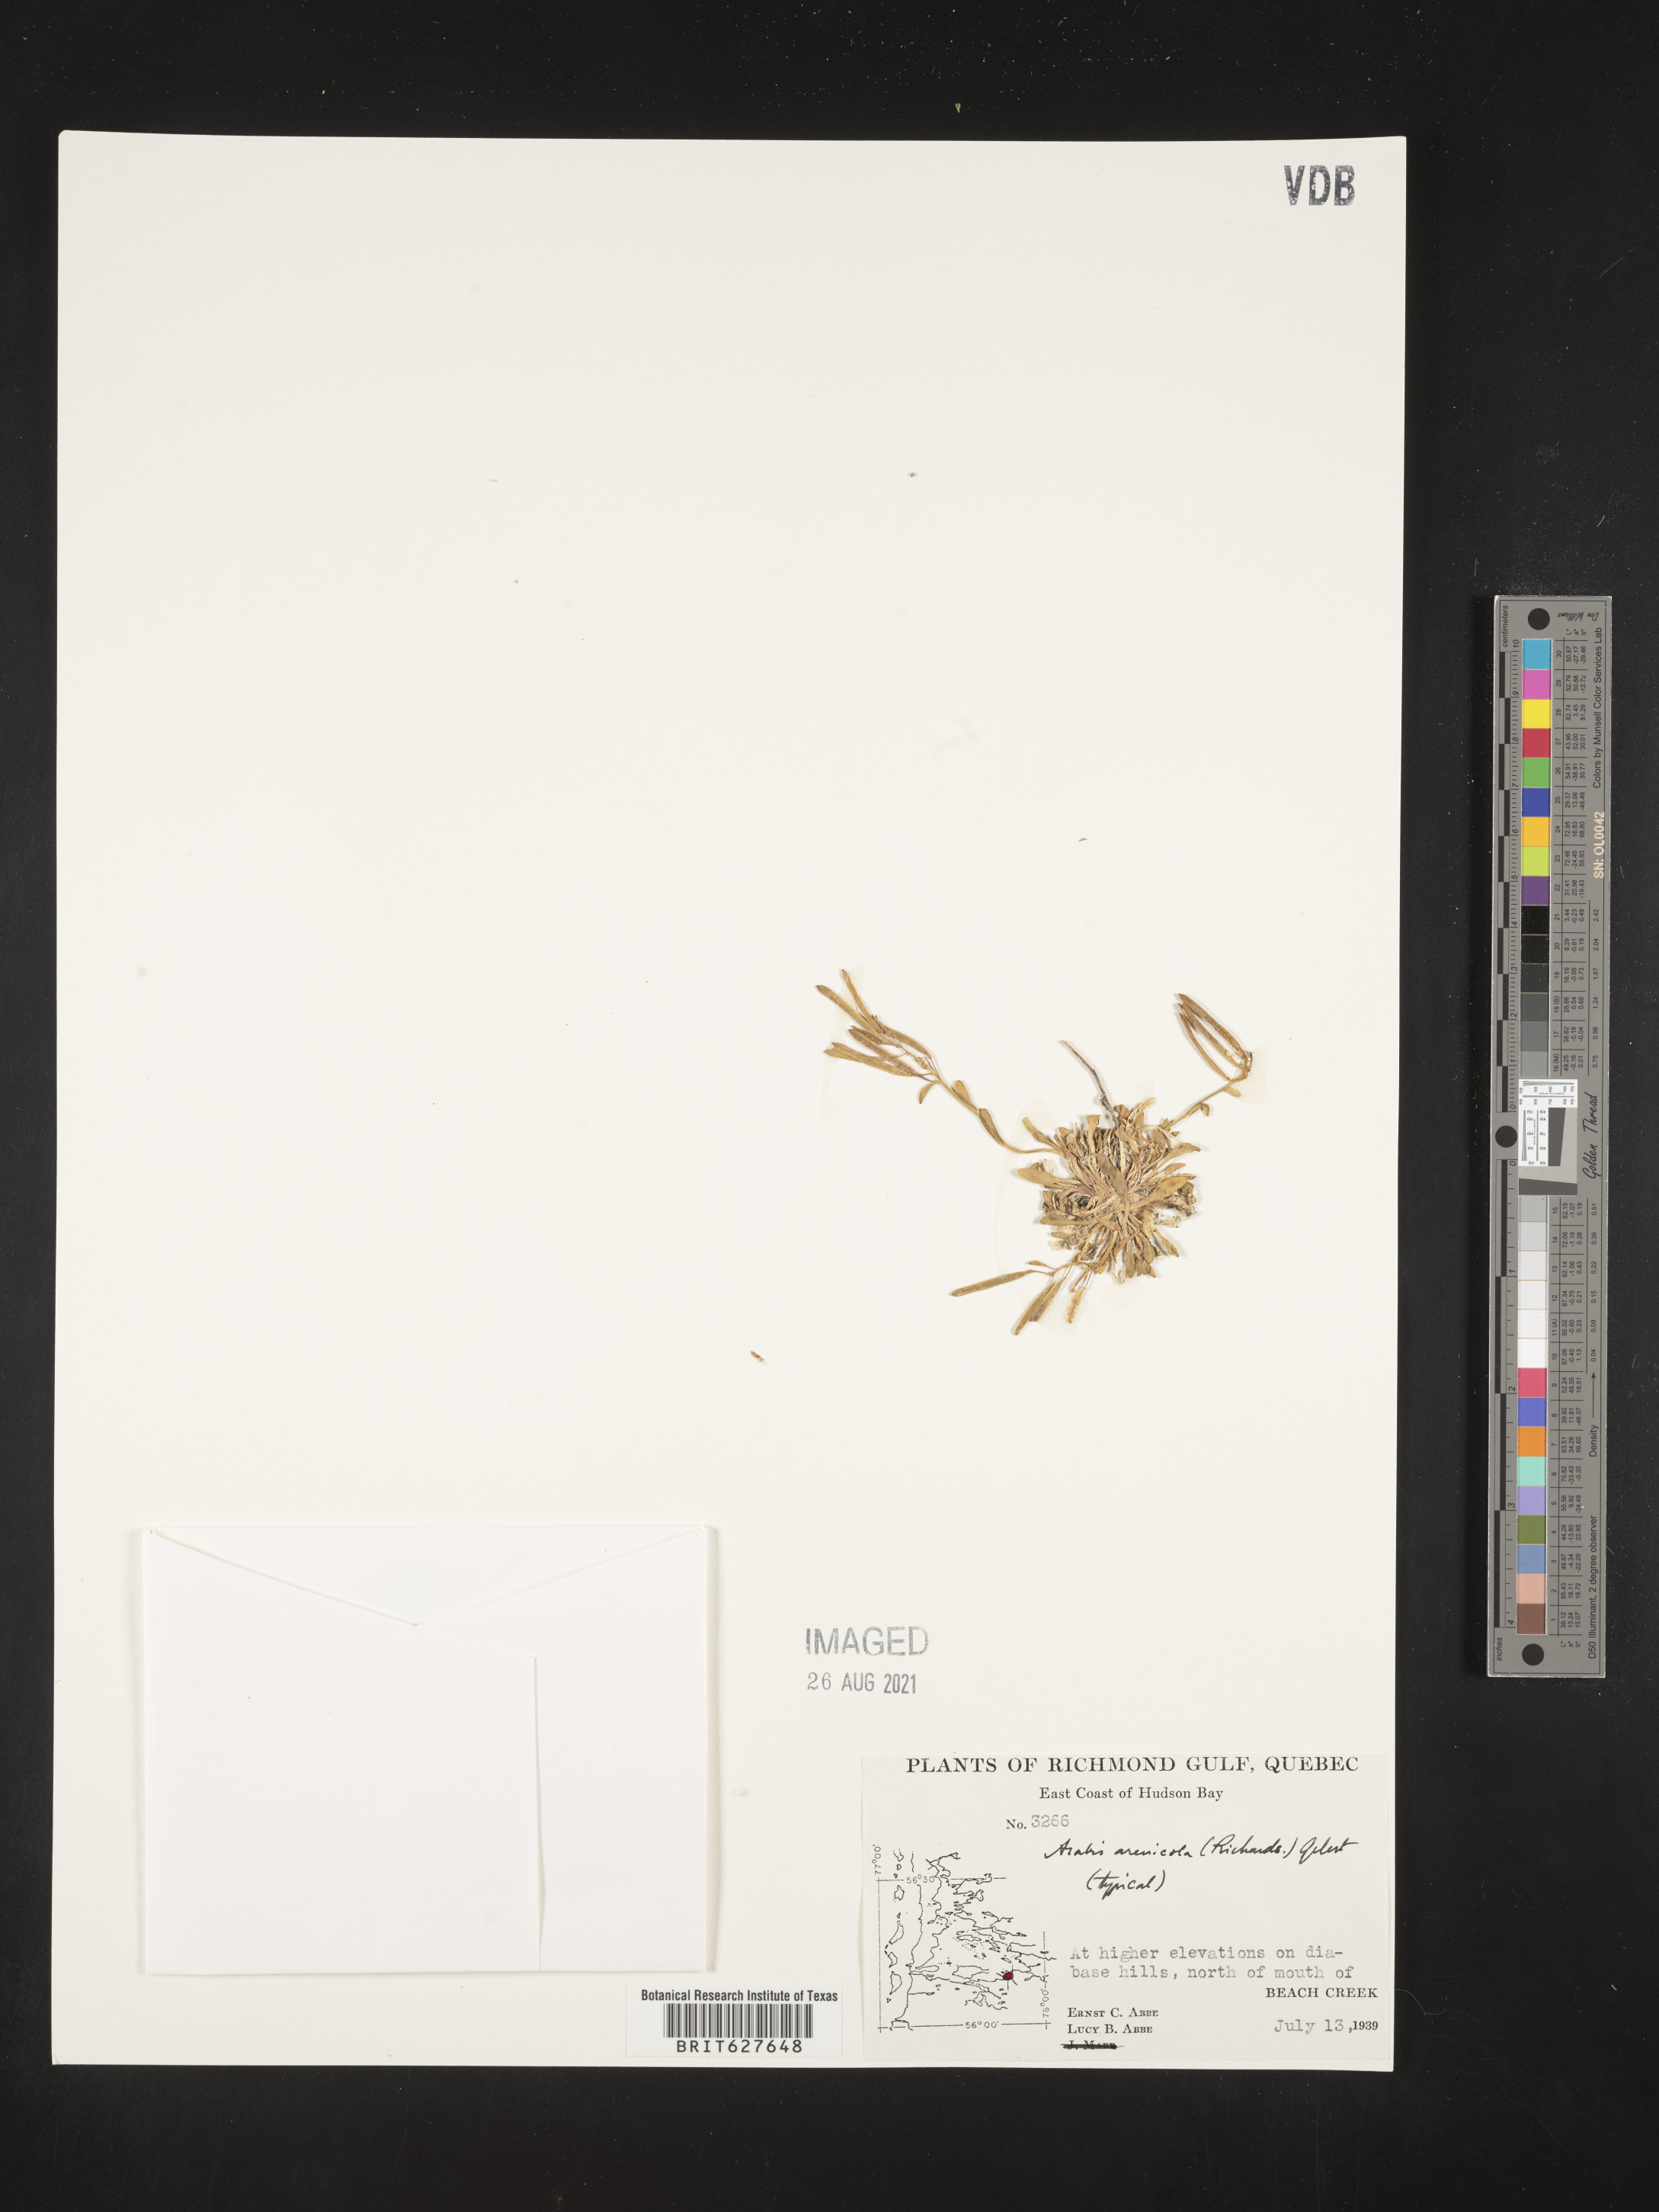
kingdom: Plantae
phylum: Tracheophyta
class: Magnoliopsida
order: Brassicales
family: Brassicaceae
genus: Arabidopsis
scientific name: Arabidopsis arenicola
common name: Arctic rockcress
